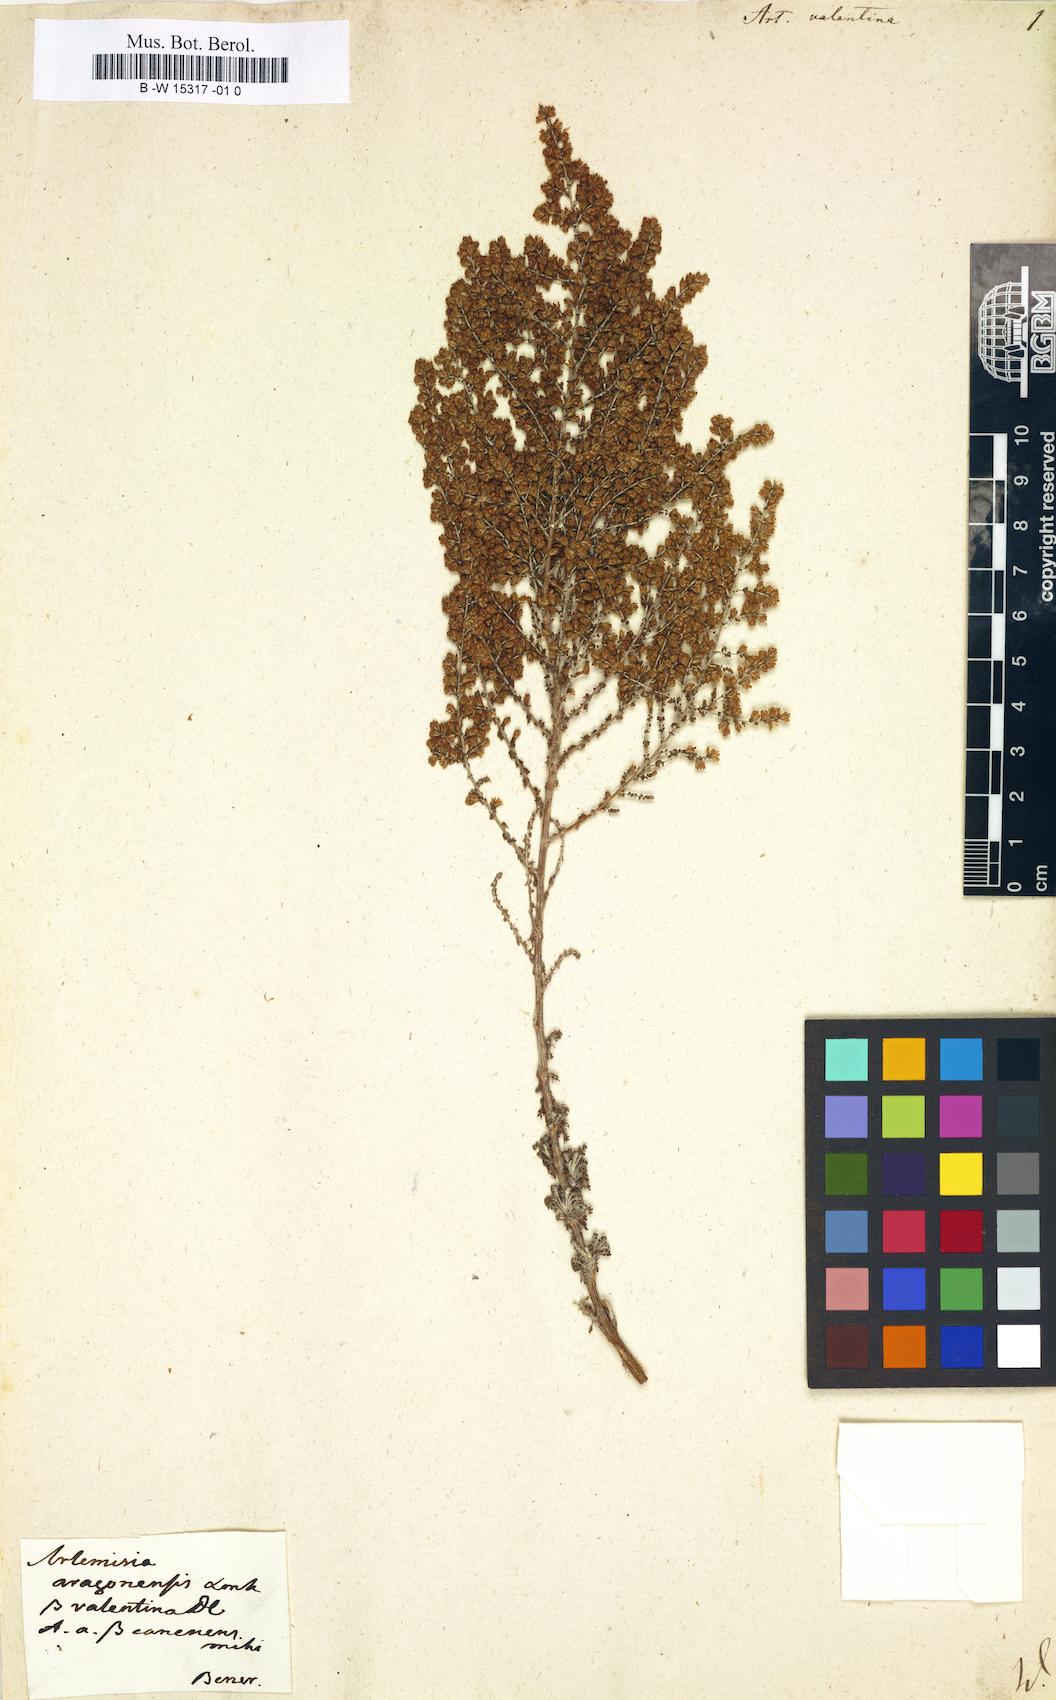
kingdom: Plantae
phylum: Tracheophyta
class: Magnoliopsida
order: Asterales
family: Asteraceae
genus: Artemisia
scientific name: Artemisia herba-alba
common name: White wormwood
